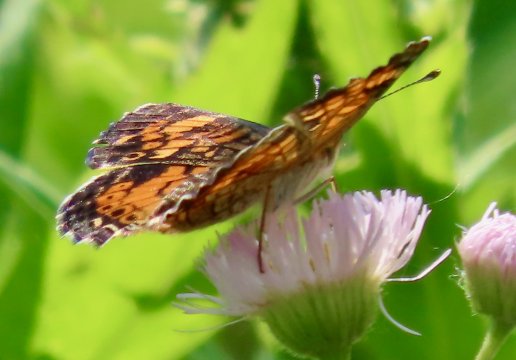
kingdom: Animalia
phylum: Arthropoda
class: Insecta
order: Lepidoptera
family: Nymphalidae
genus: Phyciodes
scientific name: Phyciodes tharos
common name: Pearl Crescent
